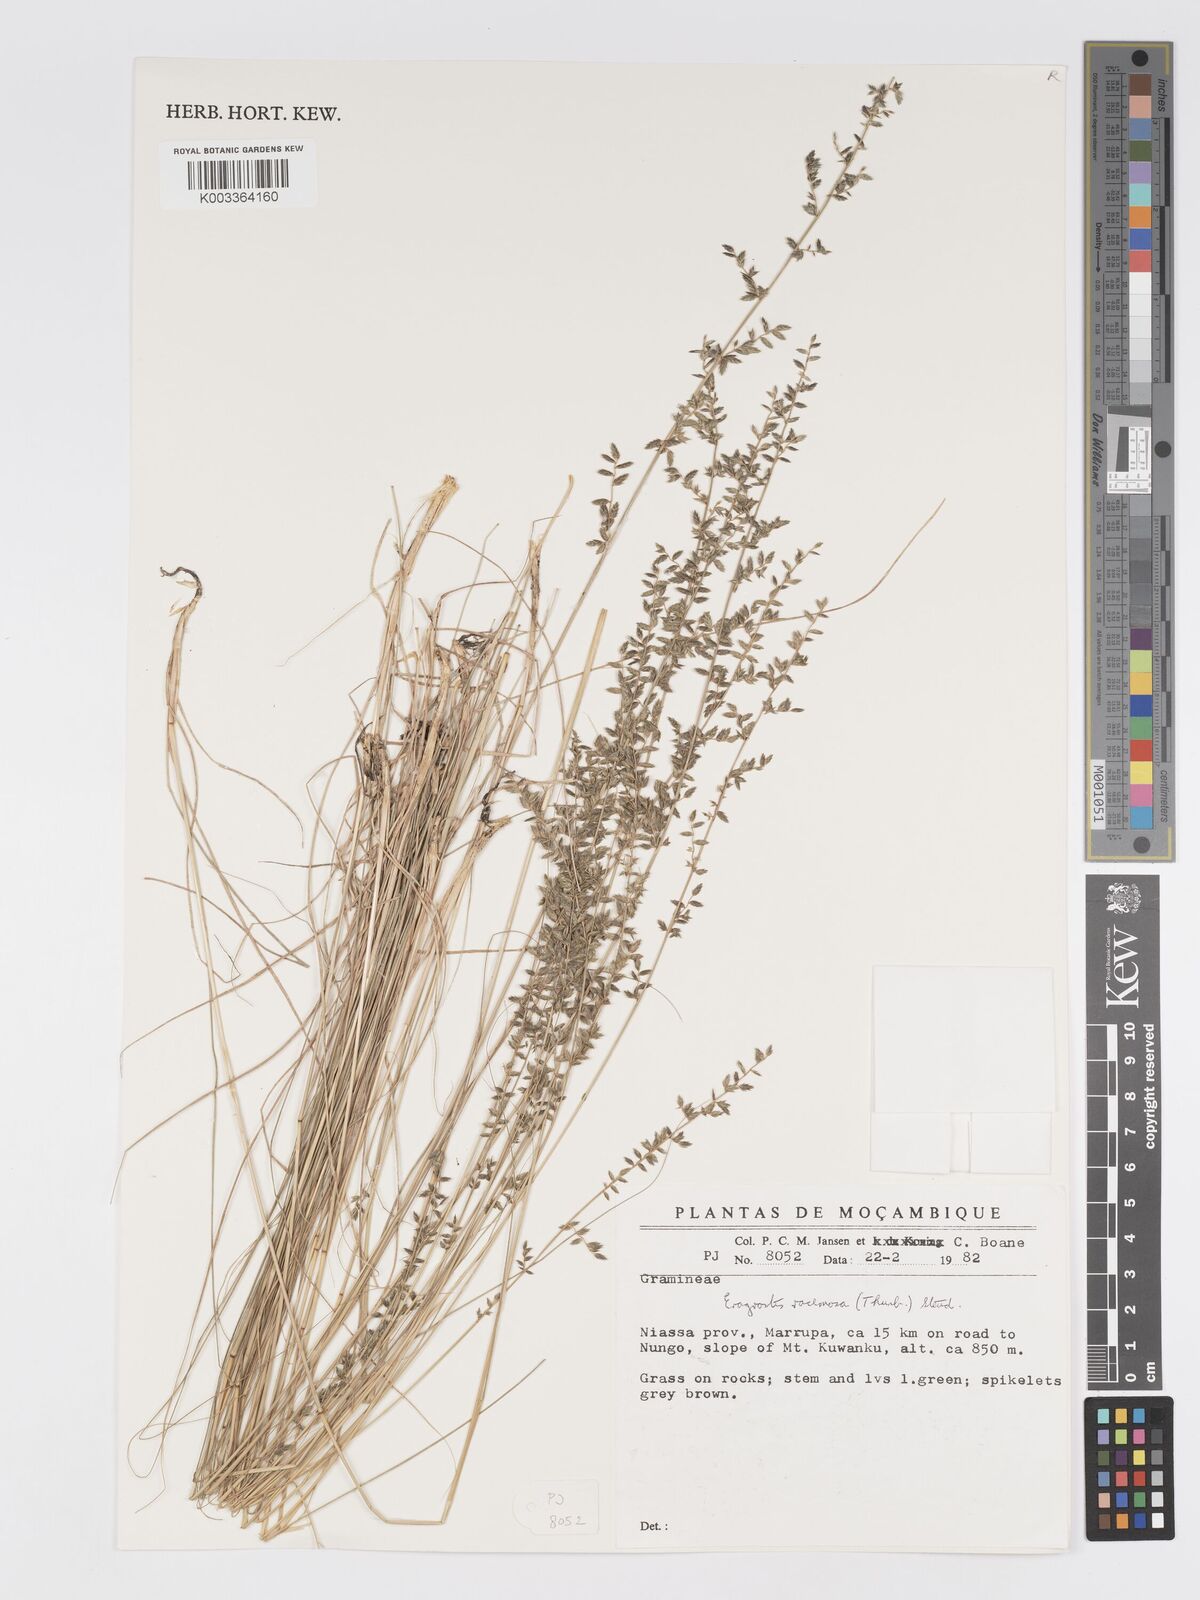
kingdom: Plantae
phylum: Tracheophyta
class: Liliopsida
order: Poales
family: Poaceae
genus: Eragrostis
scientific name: Eragrostis racemosa
